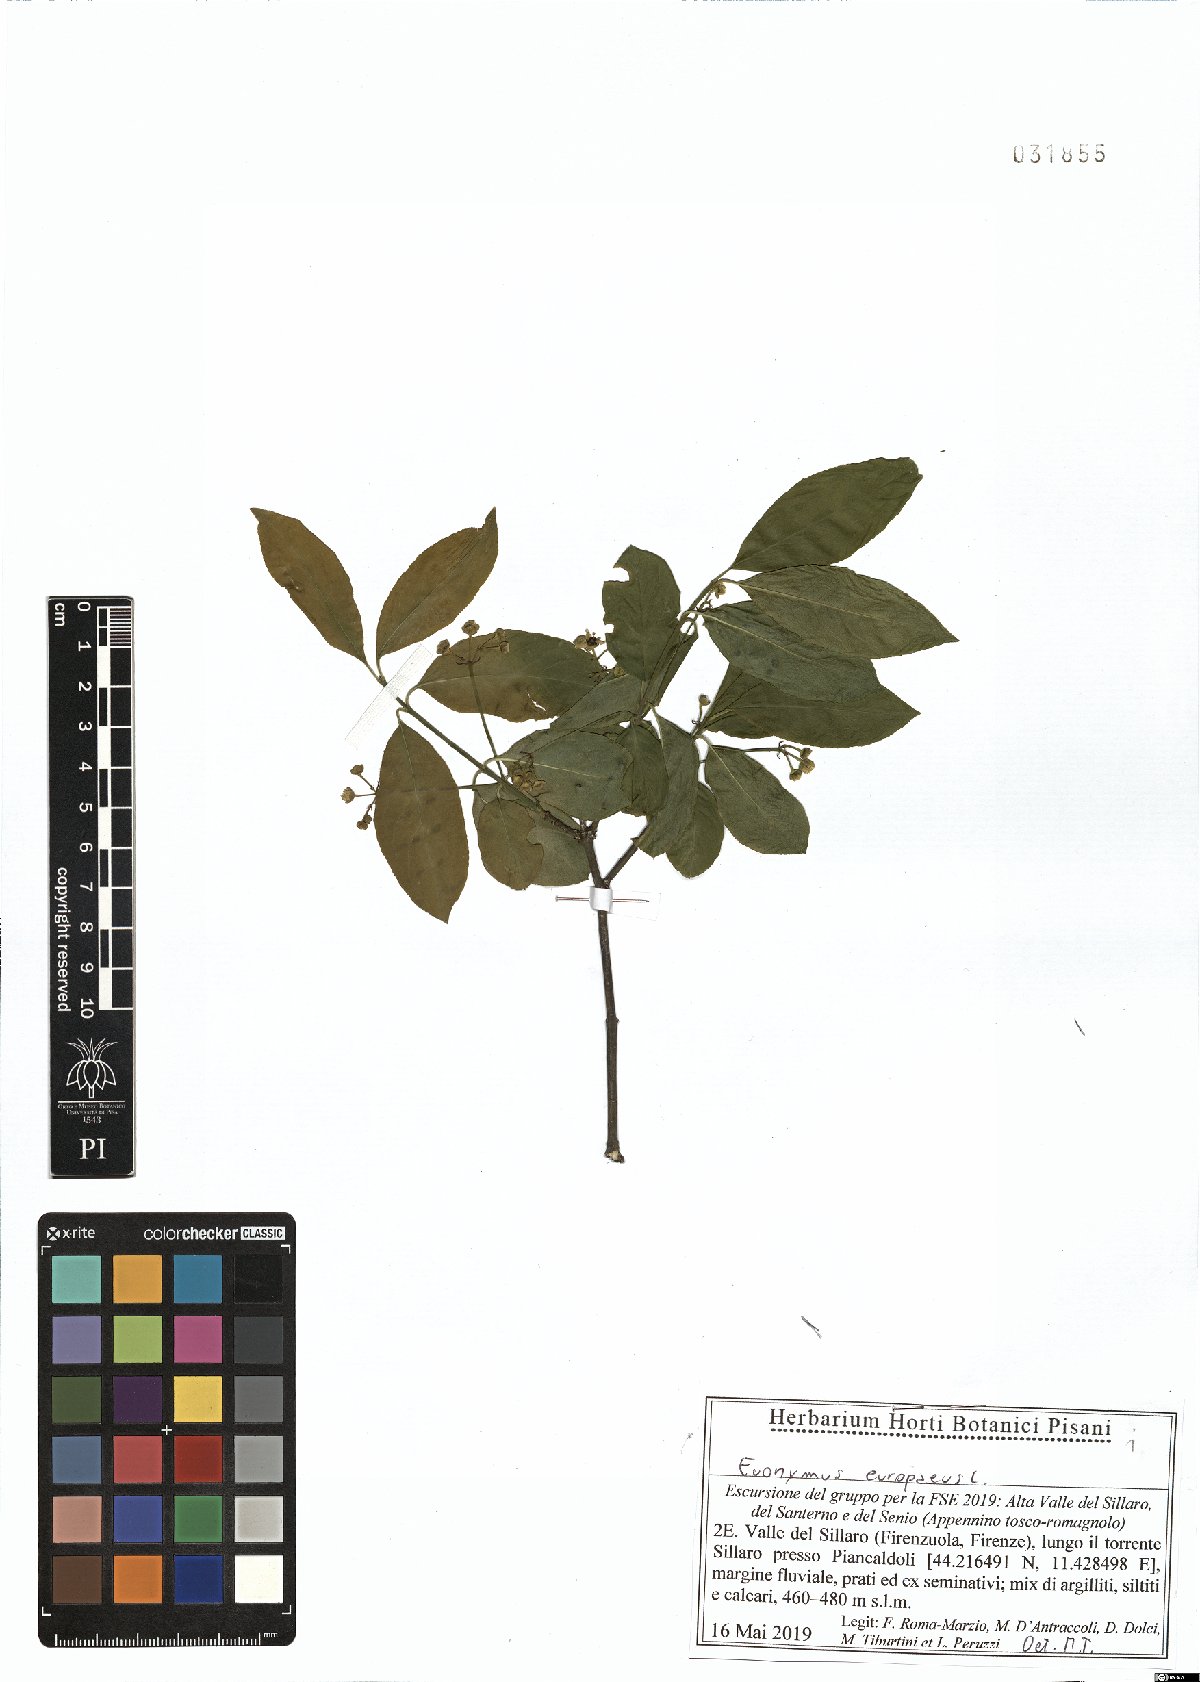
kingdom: Plantae
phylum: Tracheophyta
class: Magnoliopsida
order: Celastrales
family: Celastraceae
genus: Euonymus
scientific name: Euonymus europaeus
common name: Spindle
